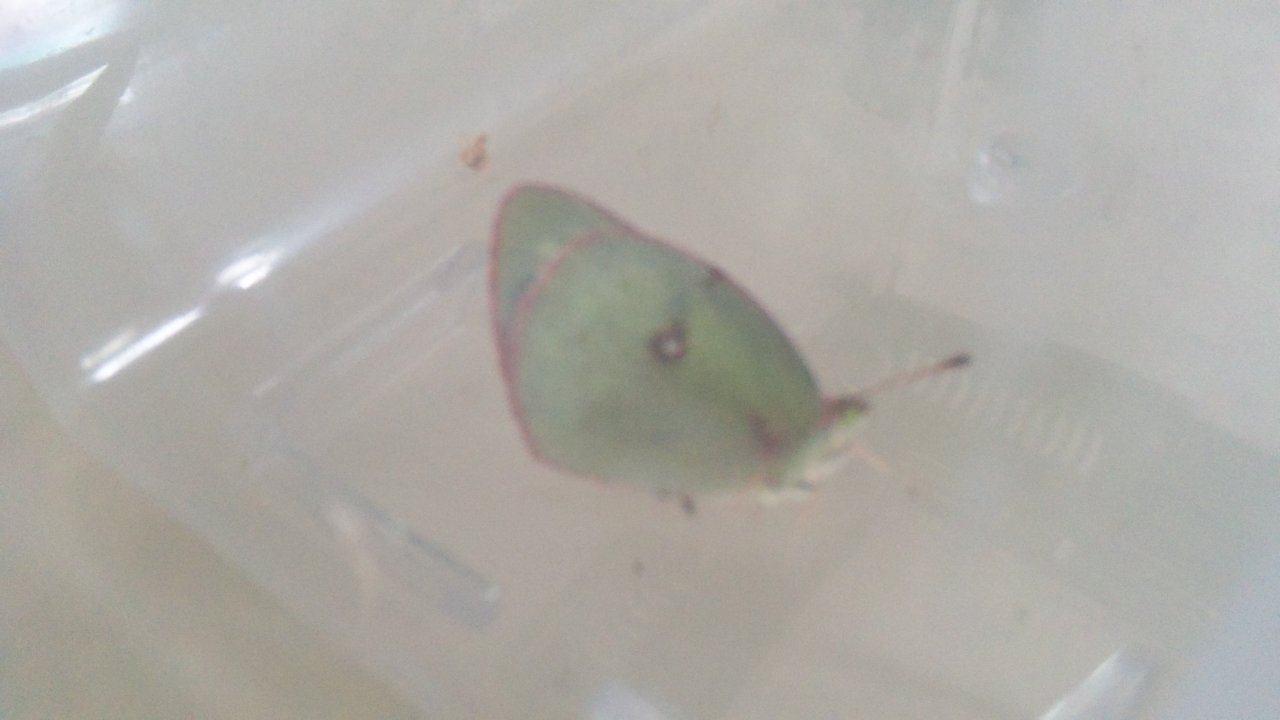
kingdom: Animalia
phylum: Arthropoda
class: Insecta
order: Lepidoptera
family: Pieridae
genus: Colias
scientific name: Colias philodice
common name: Clouded Sulphur
